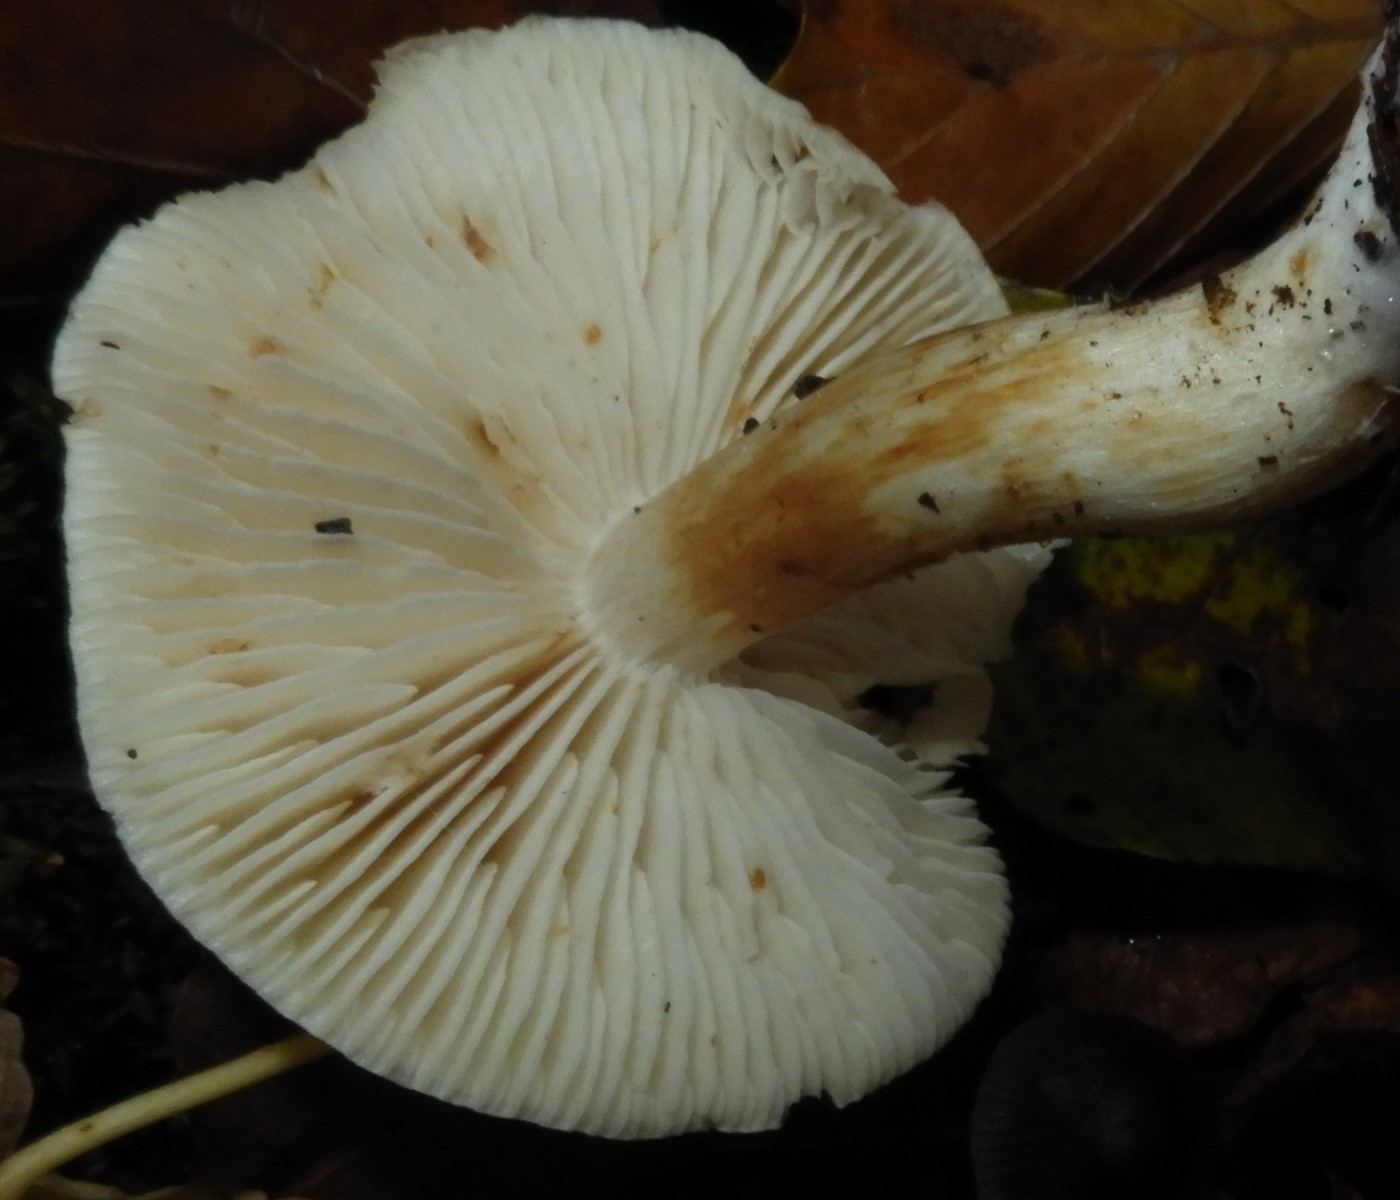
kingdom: Fungi
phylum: Basidiomycota
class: Agaricomycetes
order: Agaricales
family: Tricholomataceae
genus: Tricholoma
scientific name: Tricholoma album
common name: honning-ridderhat
